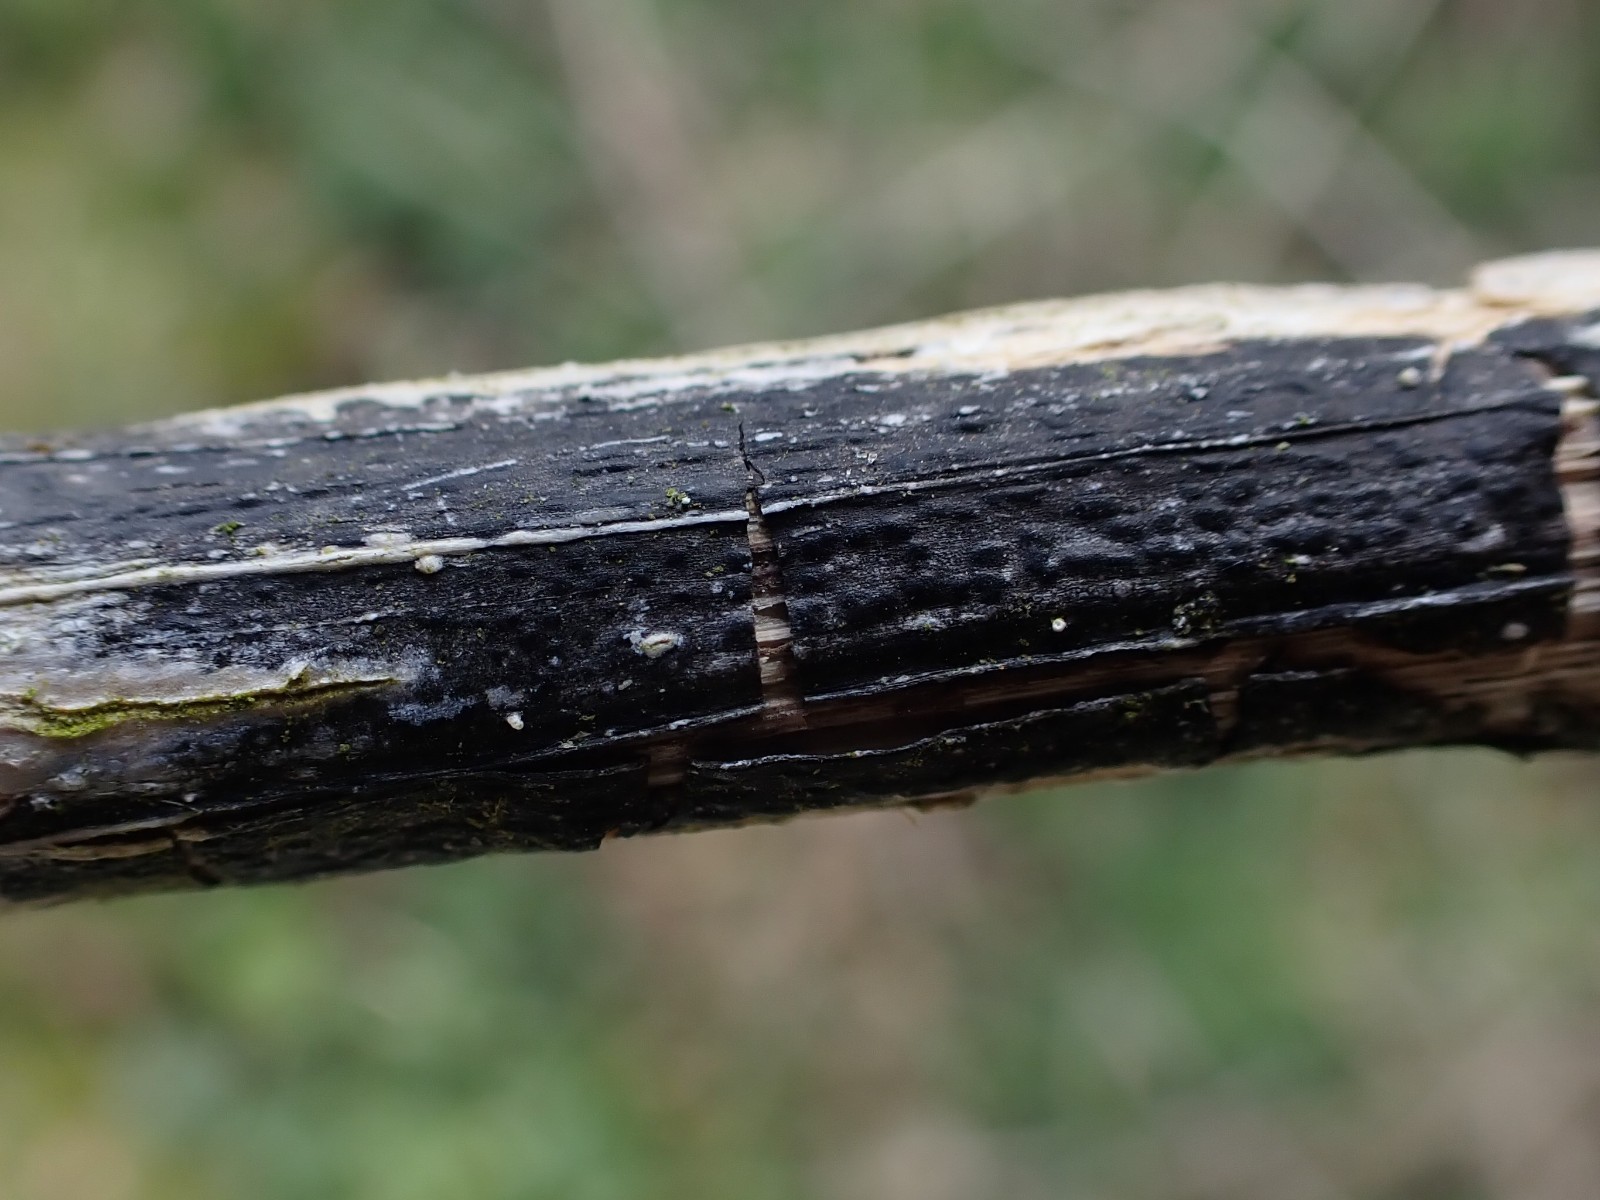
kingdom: Fungi
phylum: Ascomycota
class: Sordariomycetes
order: Diaporthales
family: Diaporthaceae
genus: Diaporthopsis
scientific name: Diaporthopsis urticae
